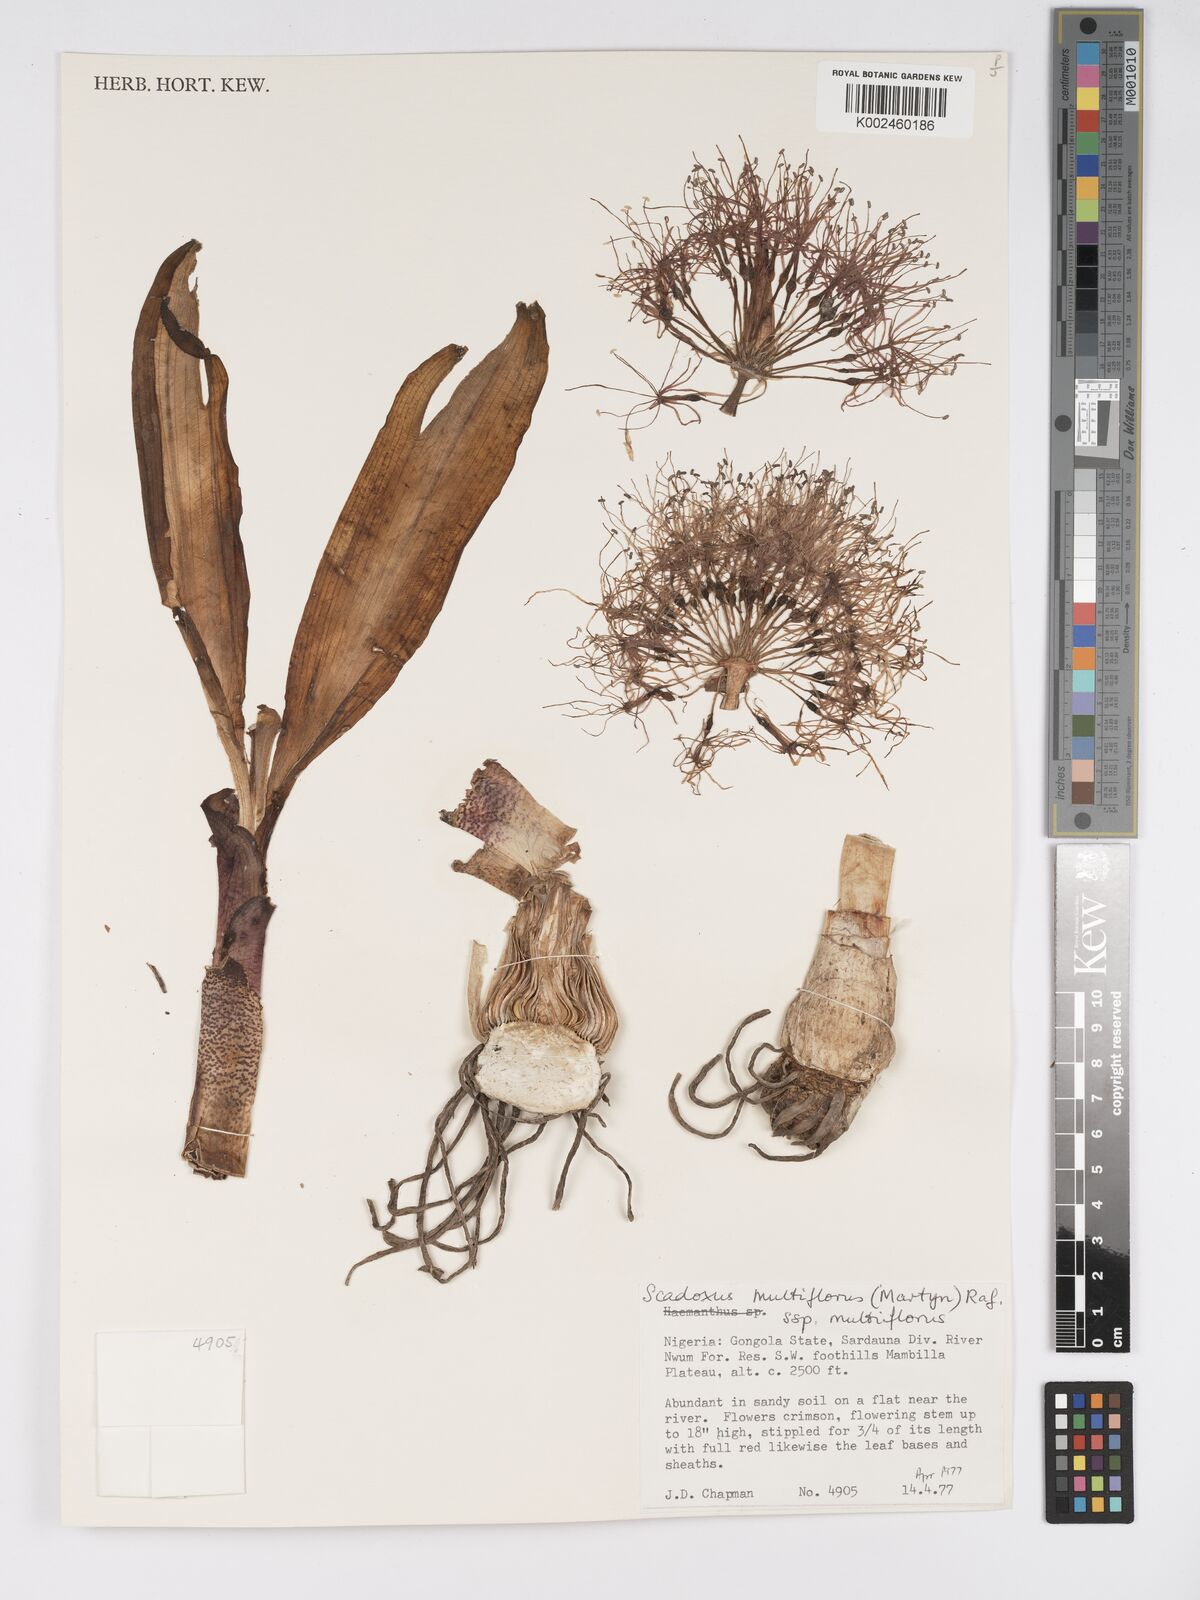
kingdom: Plantae
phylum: Tracheophyta
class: Liliopsida
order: Asparagales
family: Amaryllidaceae
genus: Scadoxus
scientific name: Scadoxus multiflorus
